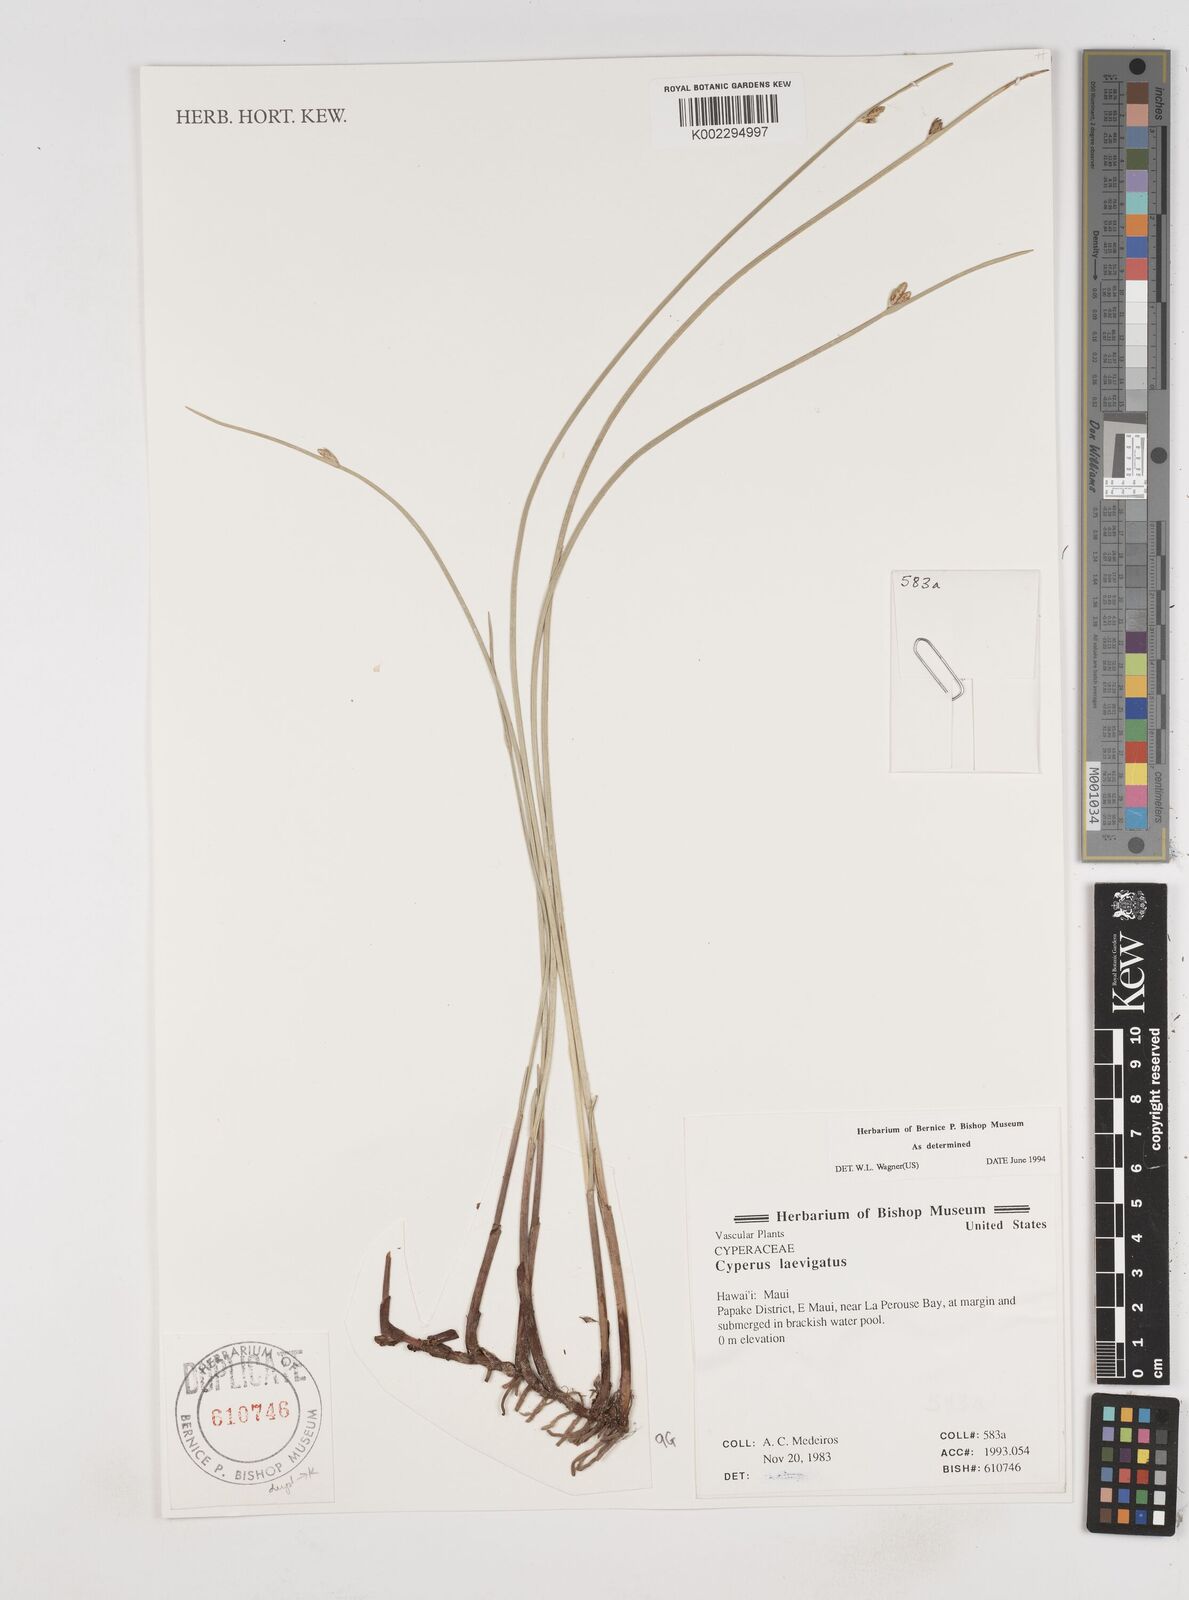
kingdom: Plantae
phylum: Tracheophyta
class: Liliopsida
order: Poales
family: Cyperaceae
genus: Cyperus
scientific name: Cyperus laevigatus
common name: Smooth flat sedge
